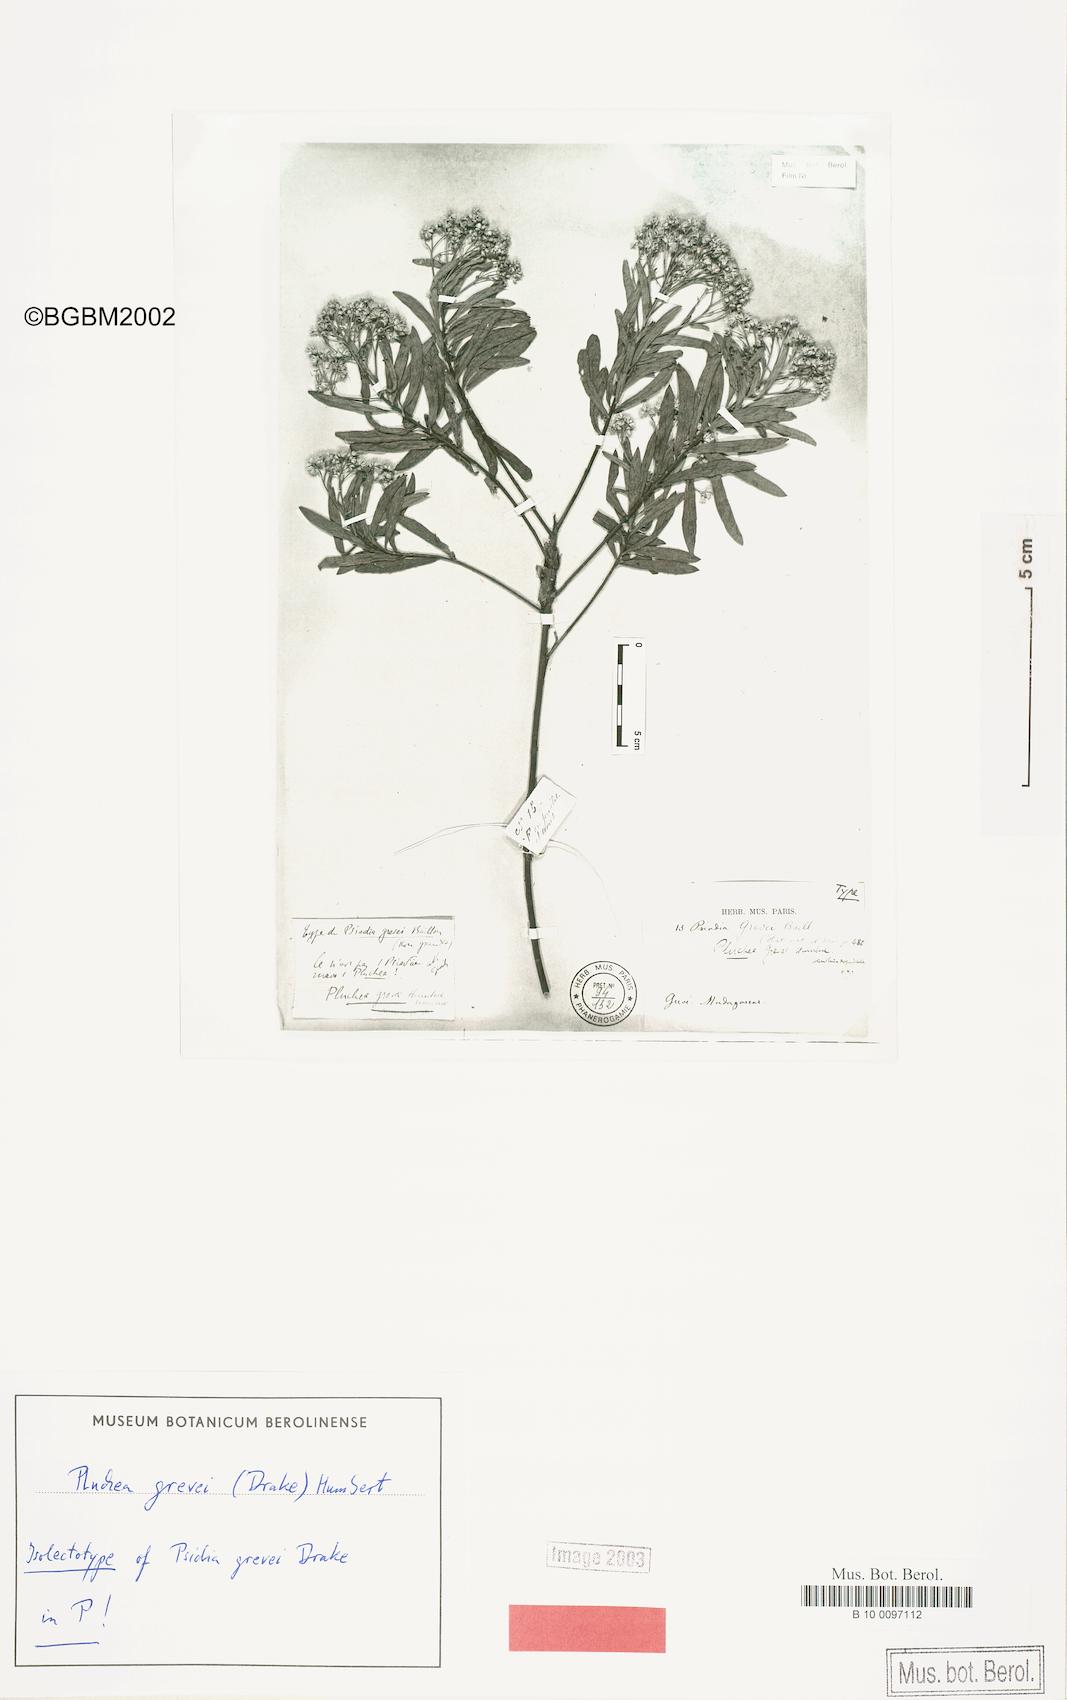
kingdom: Plantae
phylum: Tracheophyta
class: Magnoliopsida
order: Asterales
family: Asteraceae
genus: Pluchea
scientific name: Pluchea grevei
